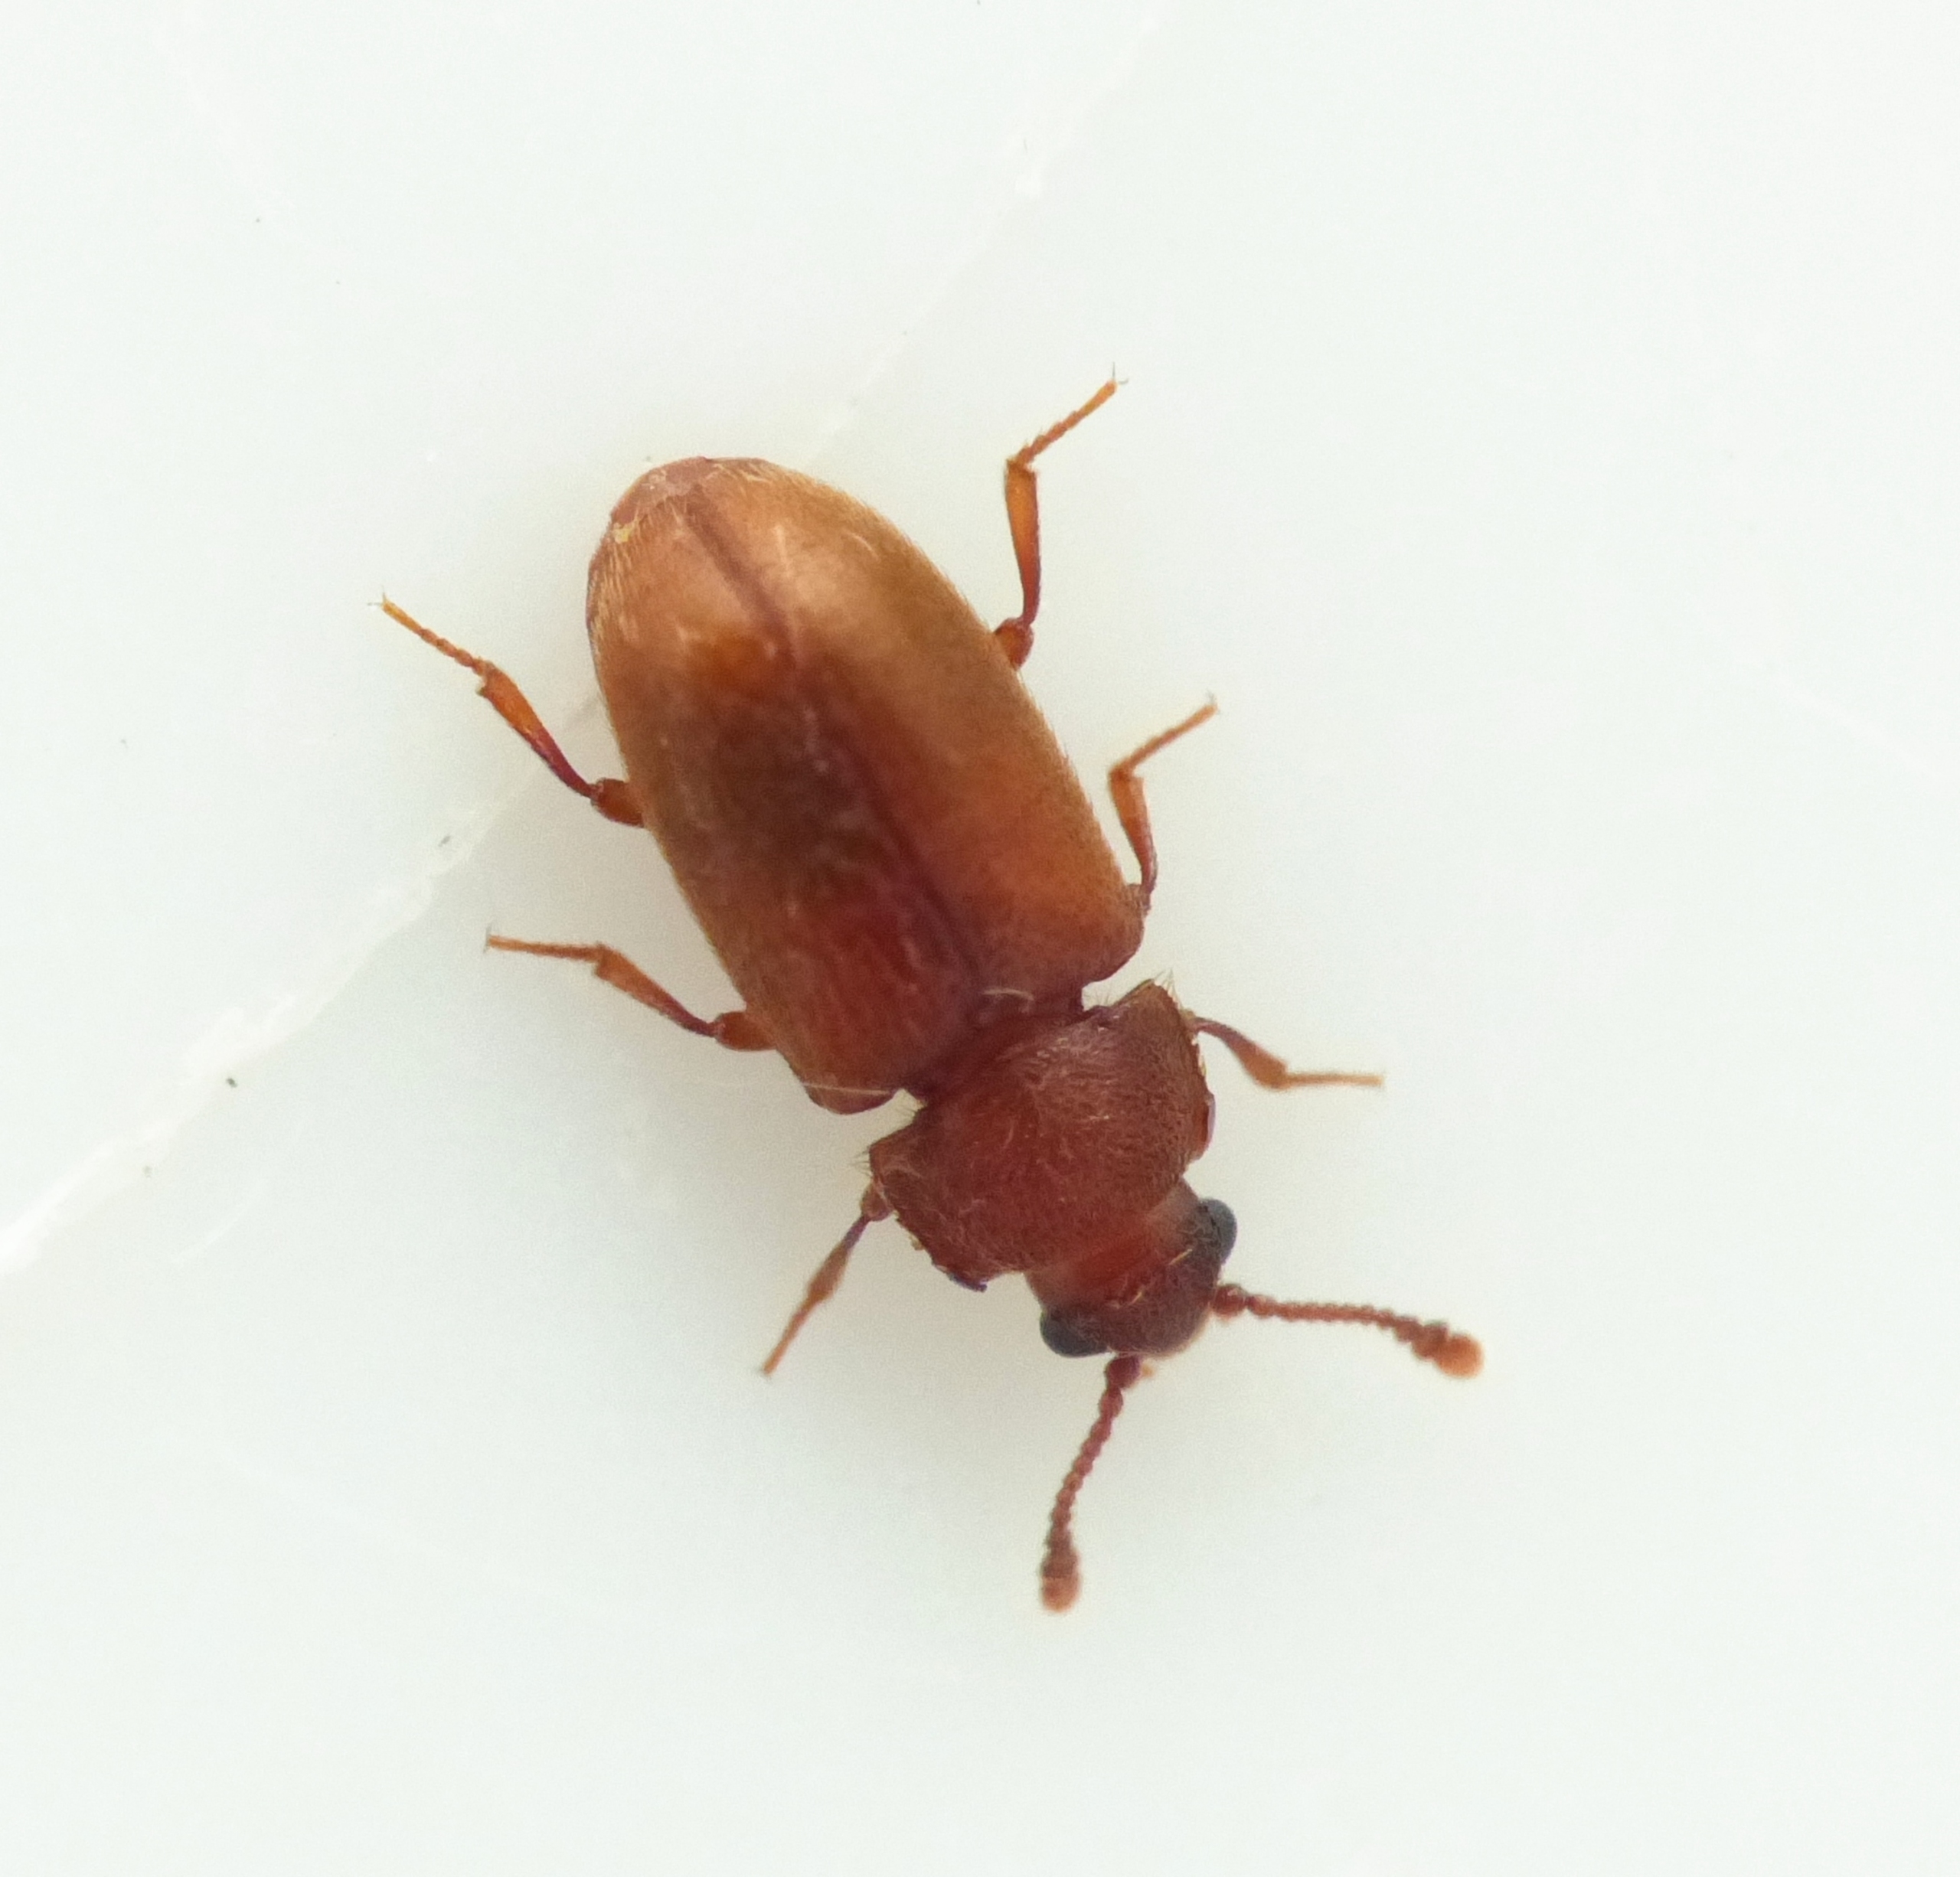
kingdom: Animalia
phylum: Arthropoda
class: Insecta
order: Coleoptera
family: Cryptophagidae
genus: Cryptophagus
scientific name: Cryptophagus pubescens
